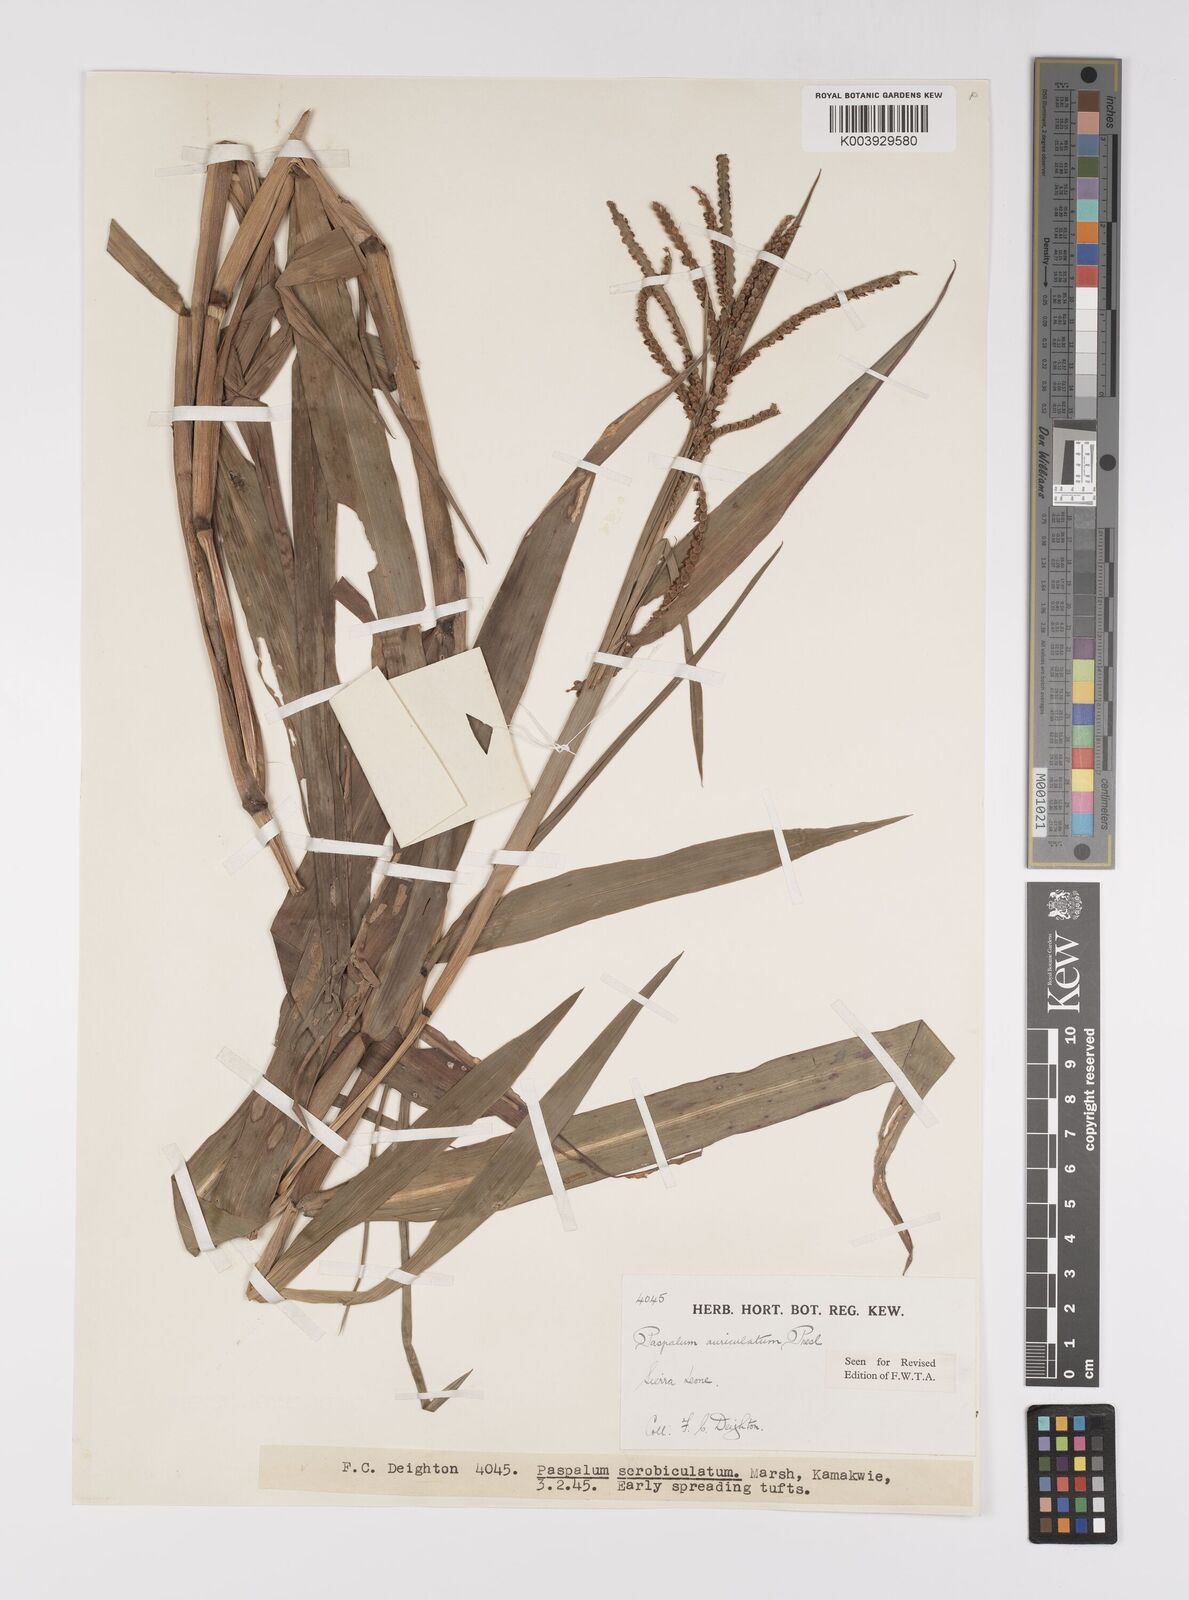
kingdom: Plantae
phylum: Tracheophyta
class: Liliopsida
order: Poales
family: Poaceae
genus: Paspalum
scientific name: Paspalum lamprocaryon
